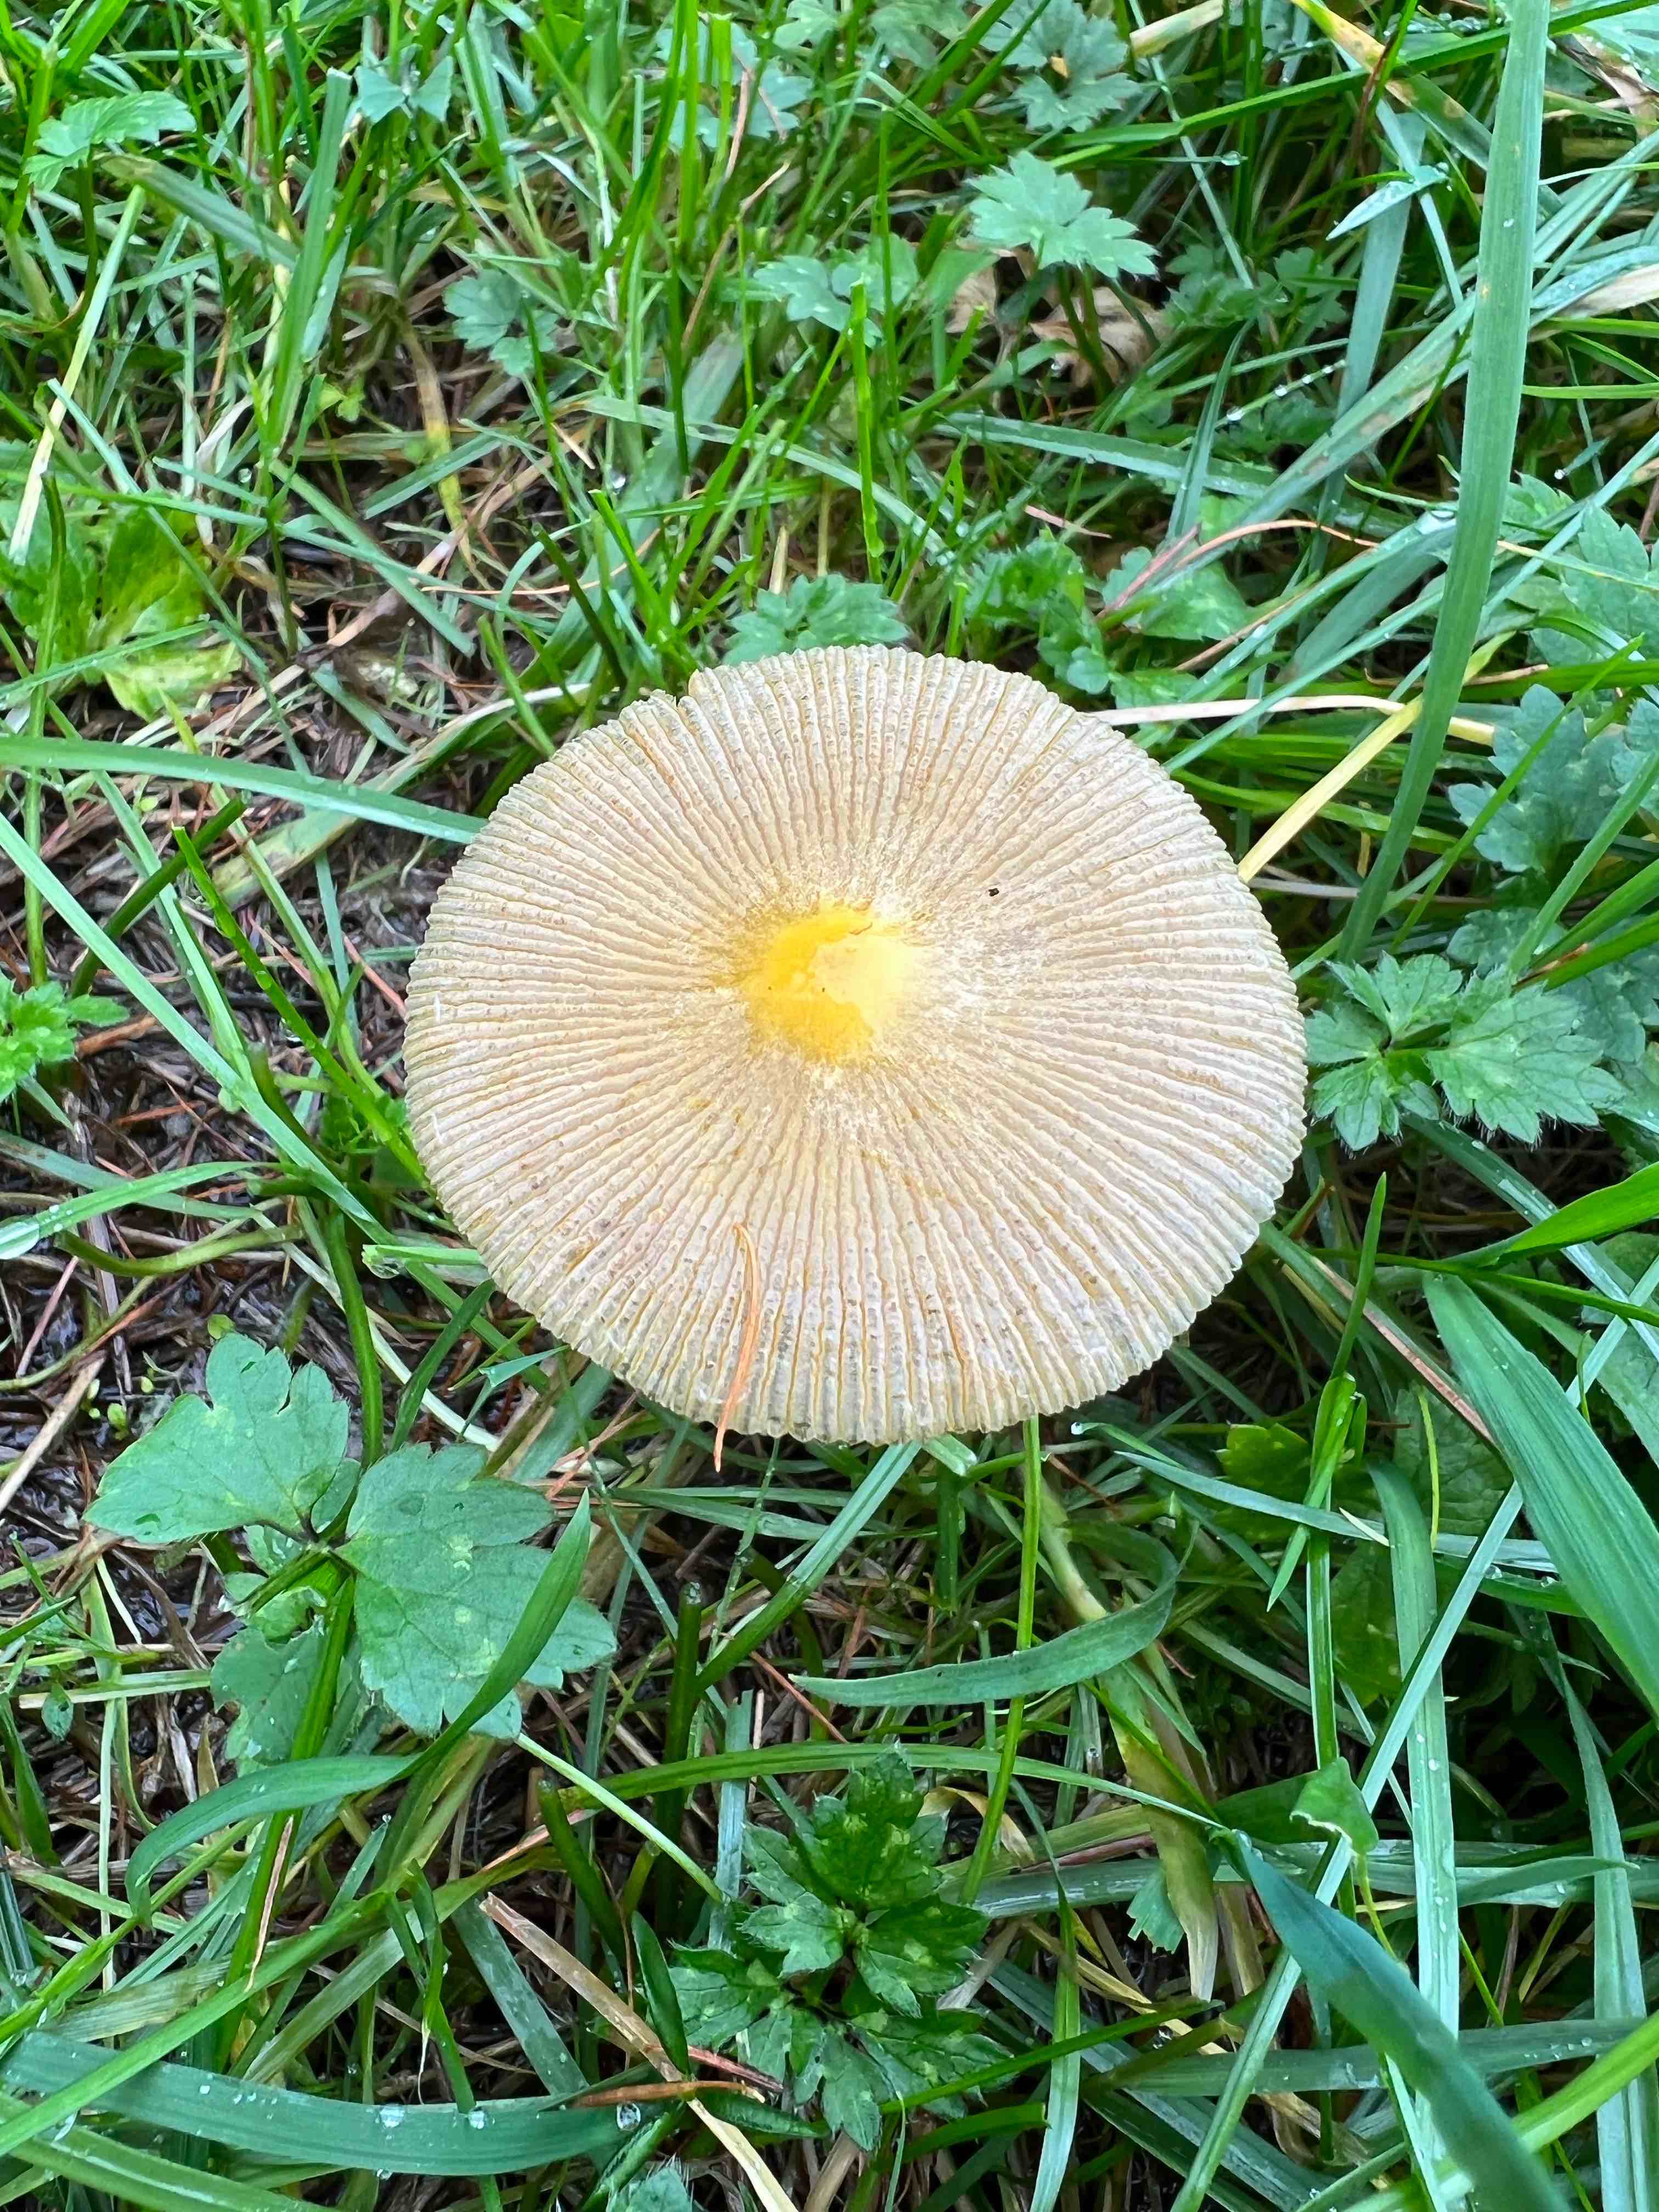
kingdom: Fungi
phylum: Basidiomycota
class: Agaricomycetes
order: Agaricales
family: Bolbitiaceae
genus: Bolbitius
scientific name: Bolbitius titubans
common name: almindelig gulhat
